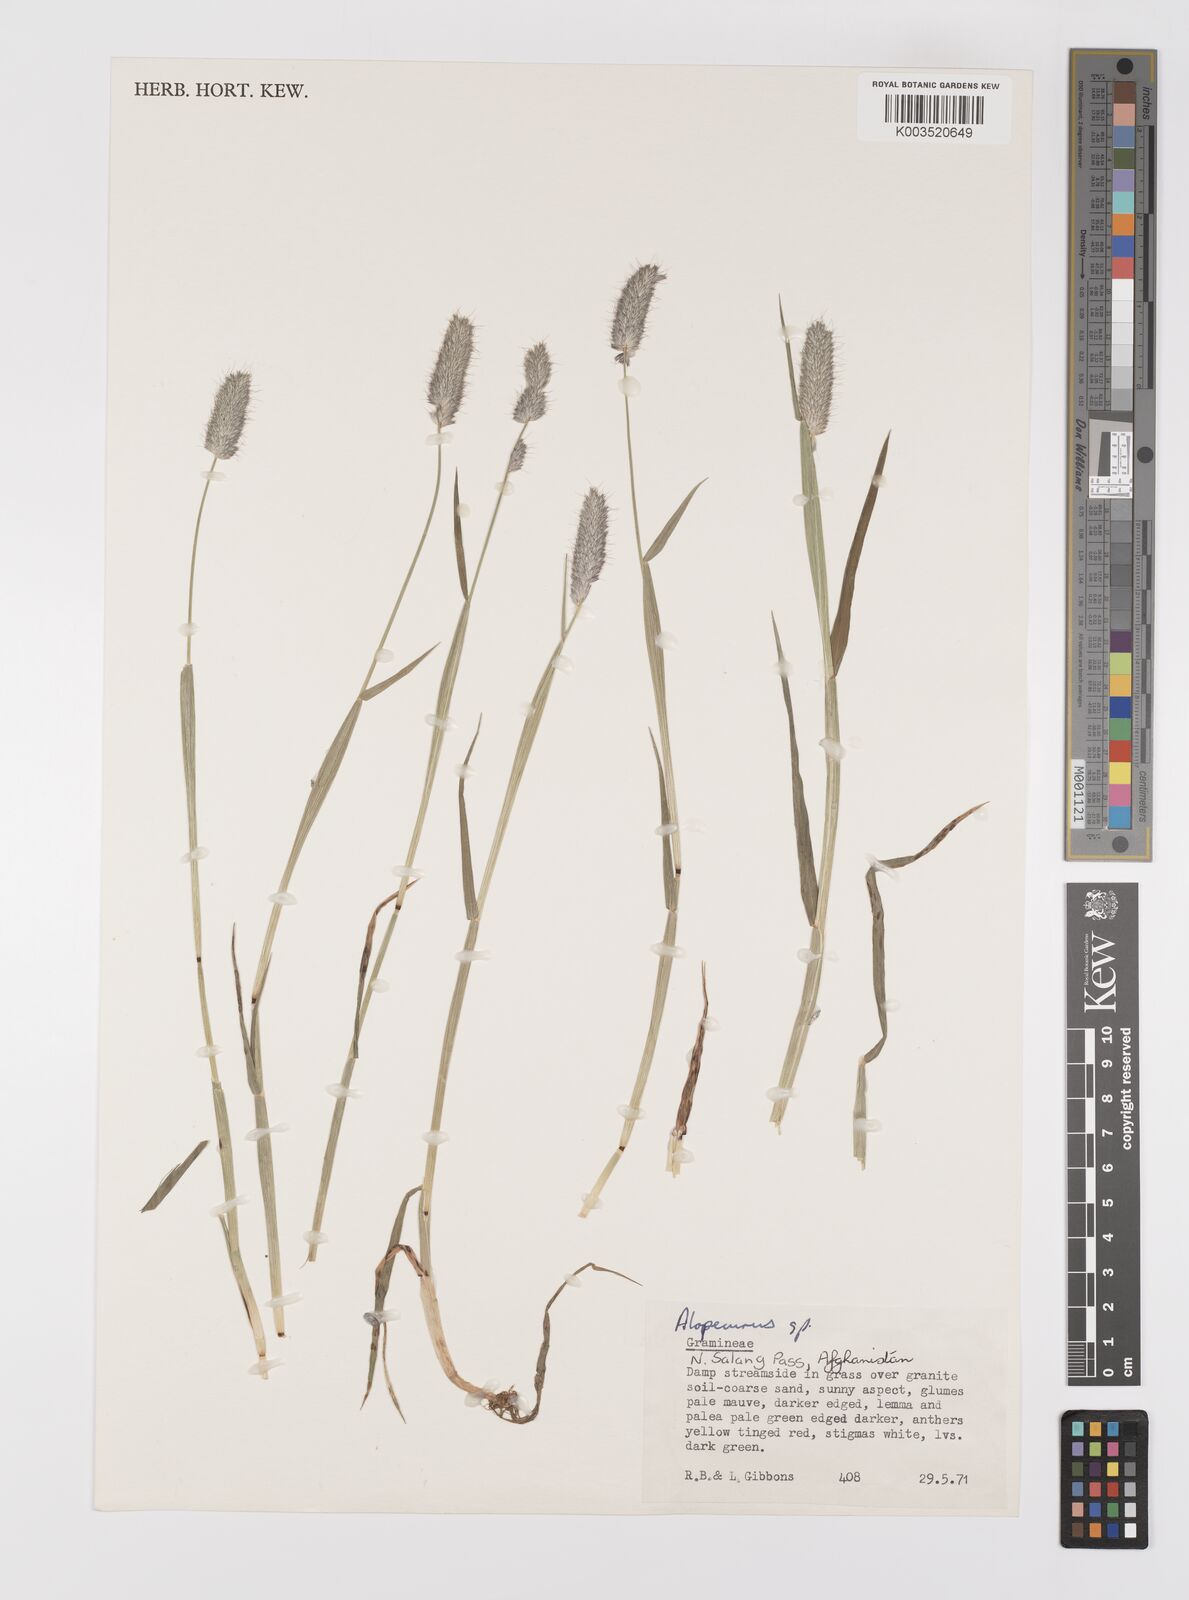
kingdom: Plantae
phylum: Tracheophyta
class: Liliopsida
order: Poales
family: Poaceae
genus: Alopecurus
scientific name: Alopecurus
